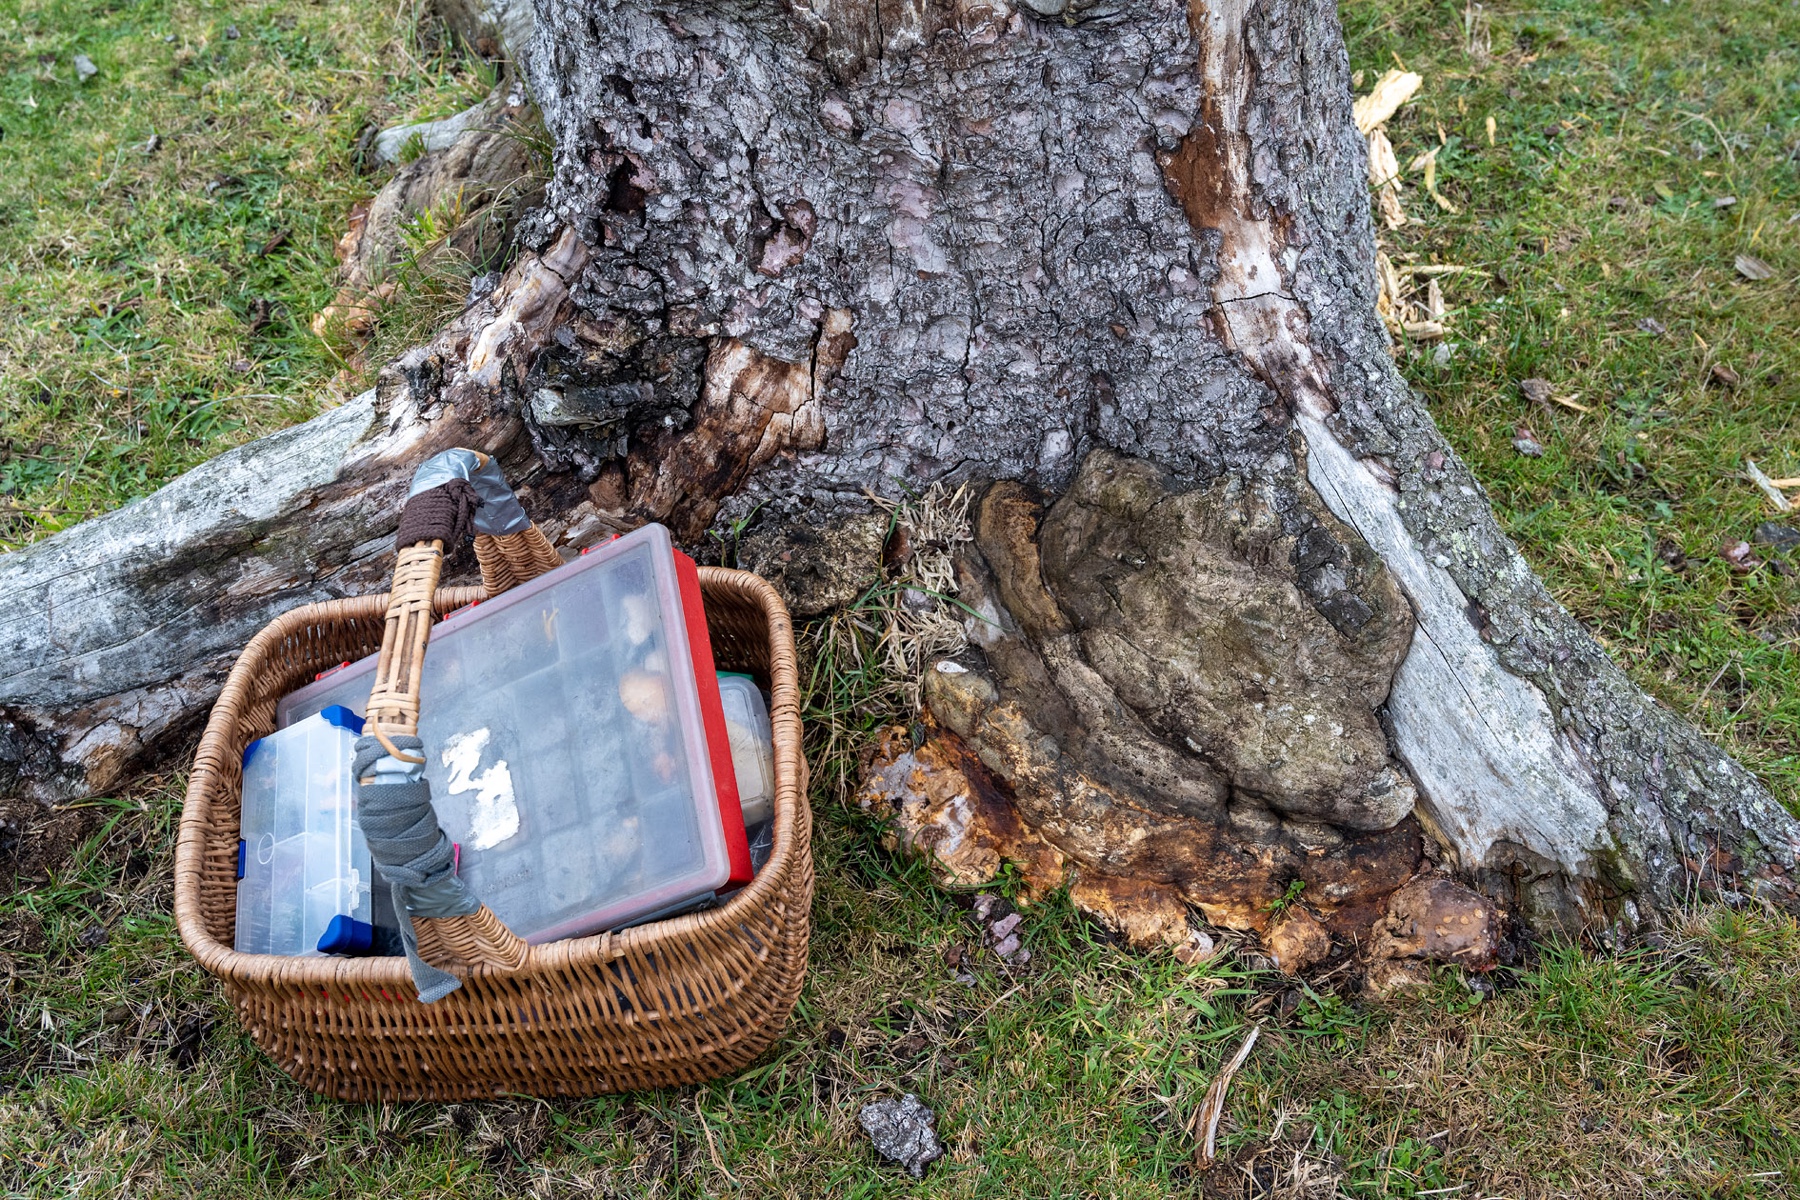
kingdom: Fungi
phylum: Basidiomycota
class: Agaricomycetes
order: Polyporales
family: Fomitopsidaceae
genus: Fomitopsis
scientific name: Fomitopsis pinicola
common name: randbæltet hovporesvamp
